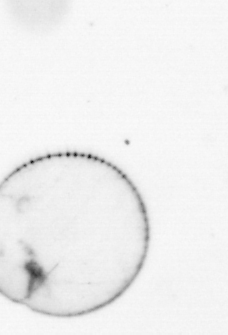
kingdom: Chromista
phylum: Myzozoa
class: Dinophyceae
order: Noctilucales
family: Noctilucaceae
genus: Noctiluca
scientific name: Noctiluca scintillans
